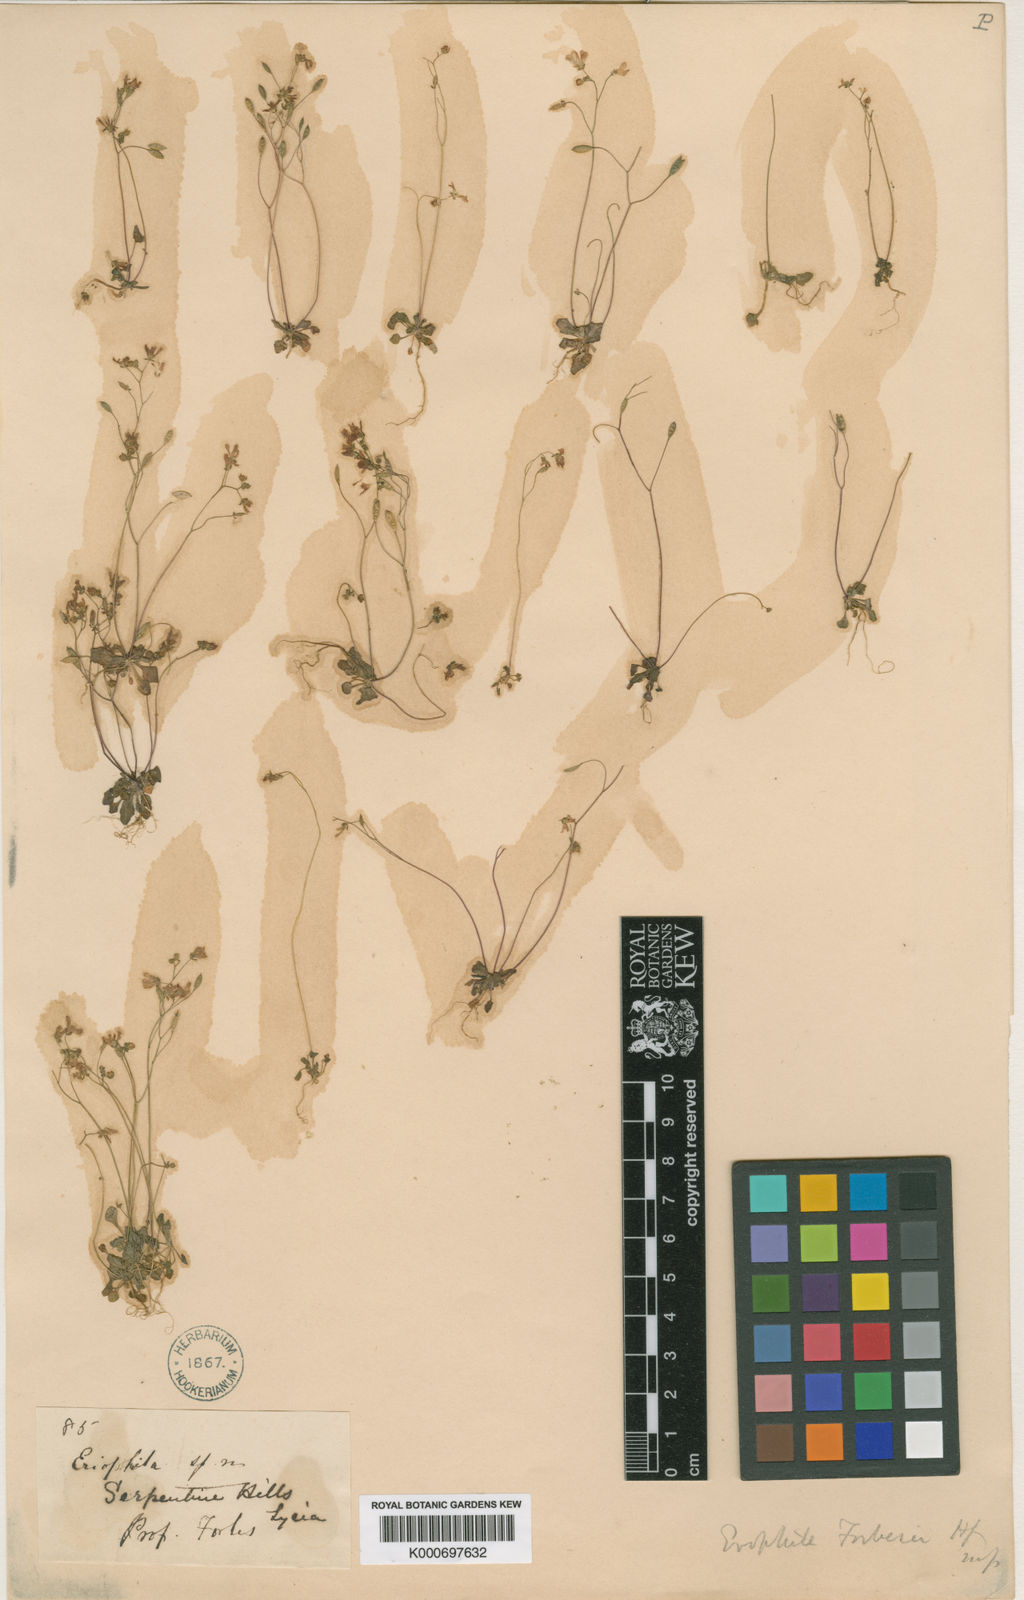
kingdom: Plantae
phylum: Tracheophyta
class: Magnoliopsida
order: Brassicales
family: Brassicaceae
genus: Draba
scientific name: Draba verna
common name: Spring draba
